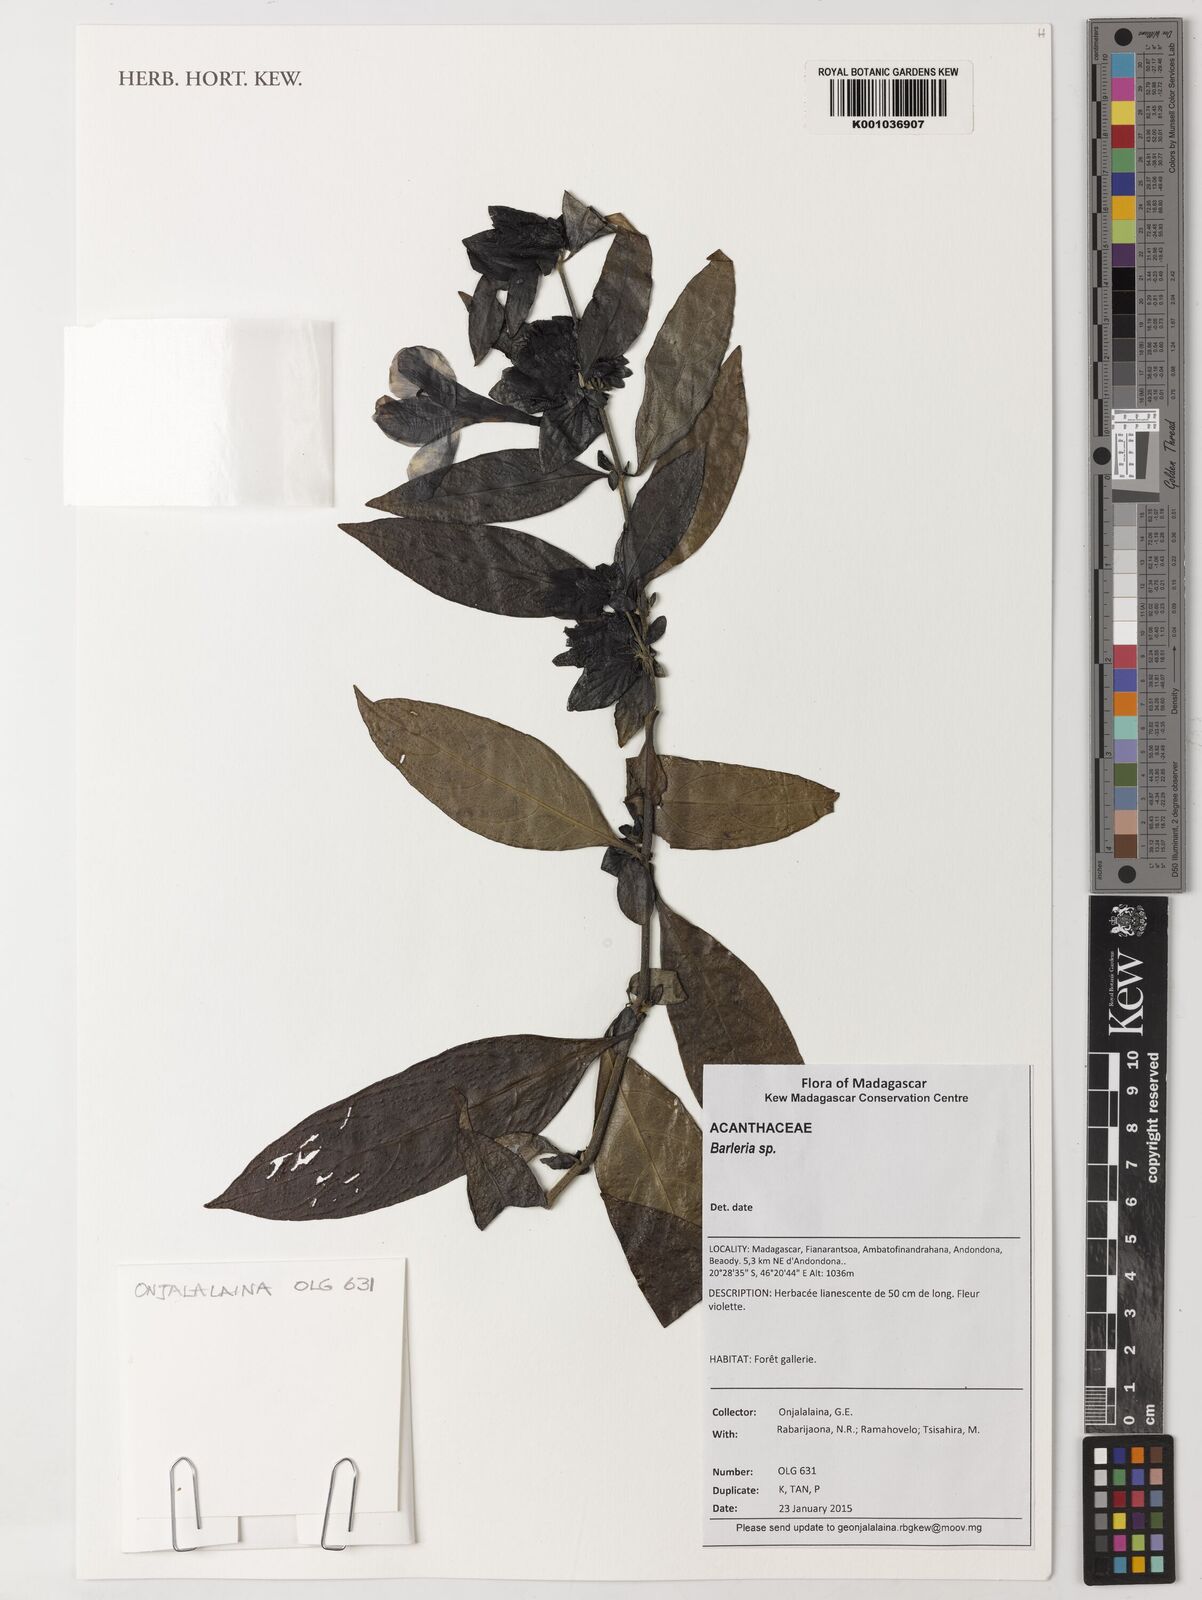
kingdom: Plantae
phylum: Tracheophyta
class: Magnoliopsida
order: Lamiales
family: Acanthaceae
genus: Barleria
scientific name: Barleria
